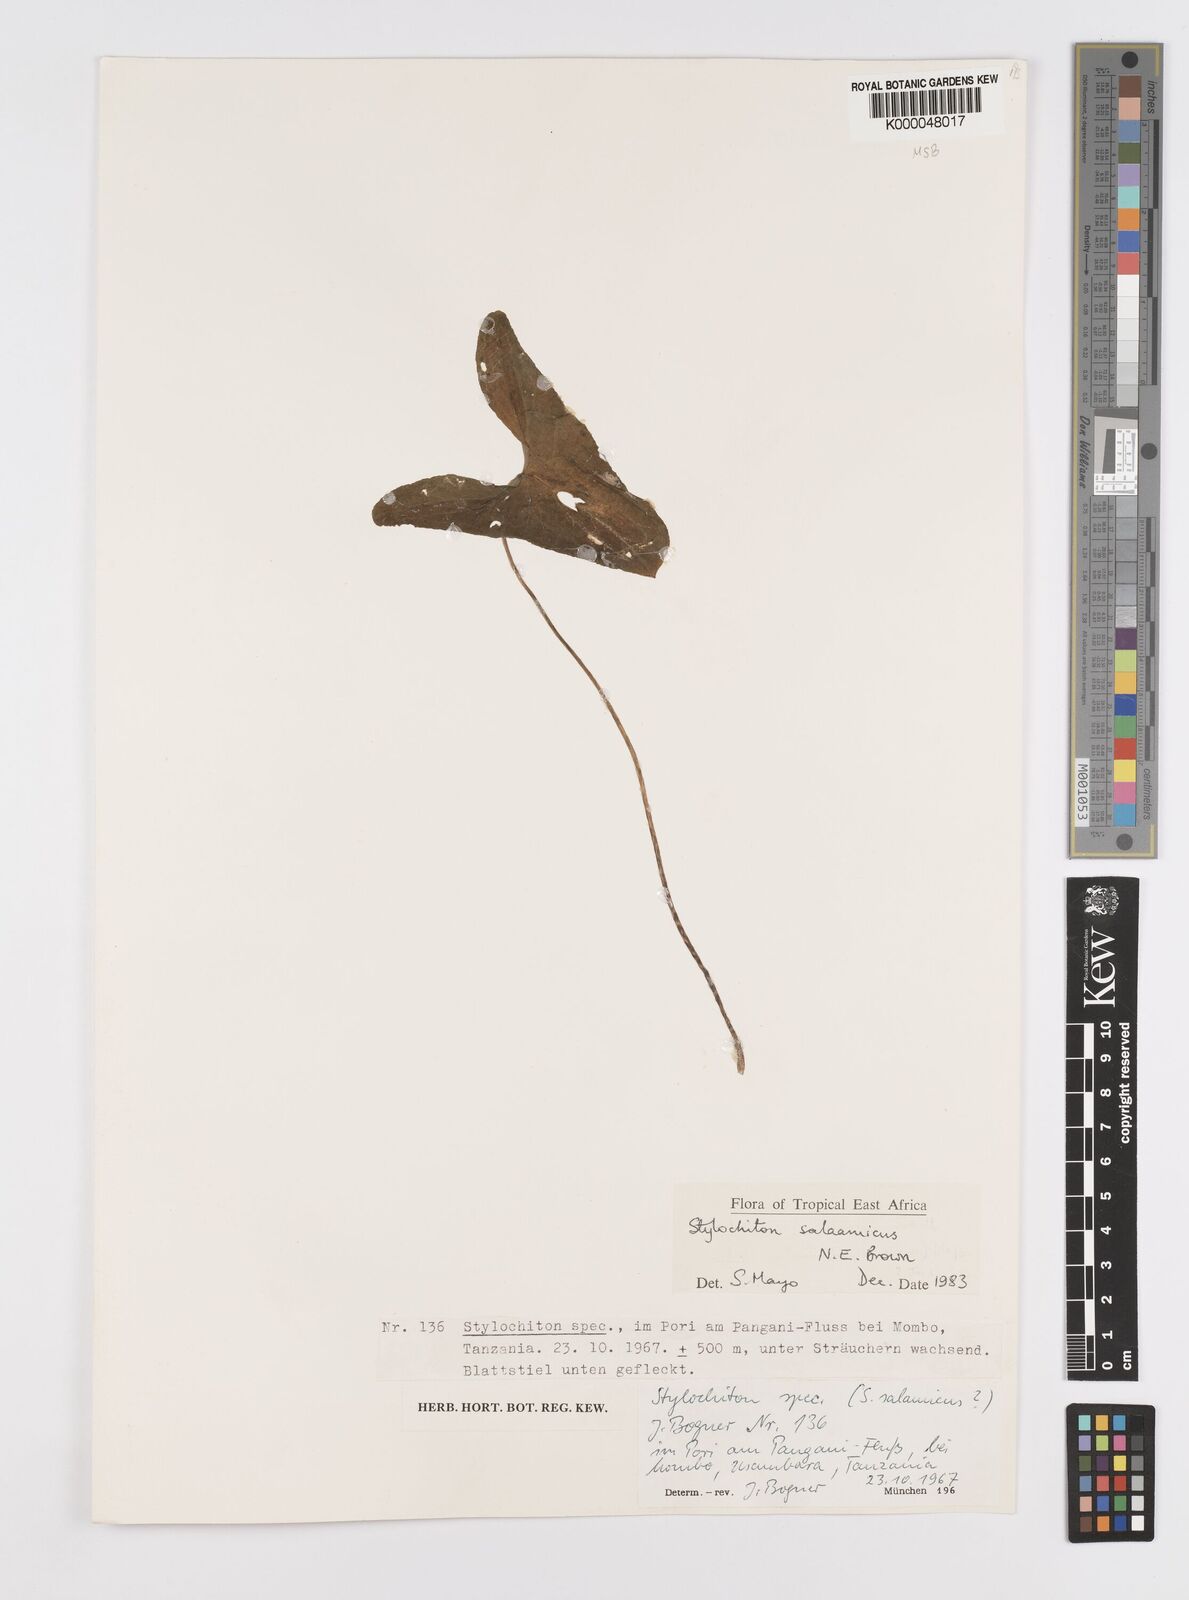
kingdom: Plantae
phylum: Tracheophyta
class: Liliopsida
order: Alismatales
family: Araceae
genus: Stylochaeton
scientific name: Stylochaeton salaamicum
